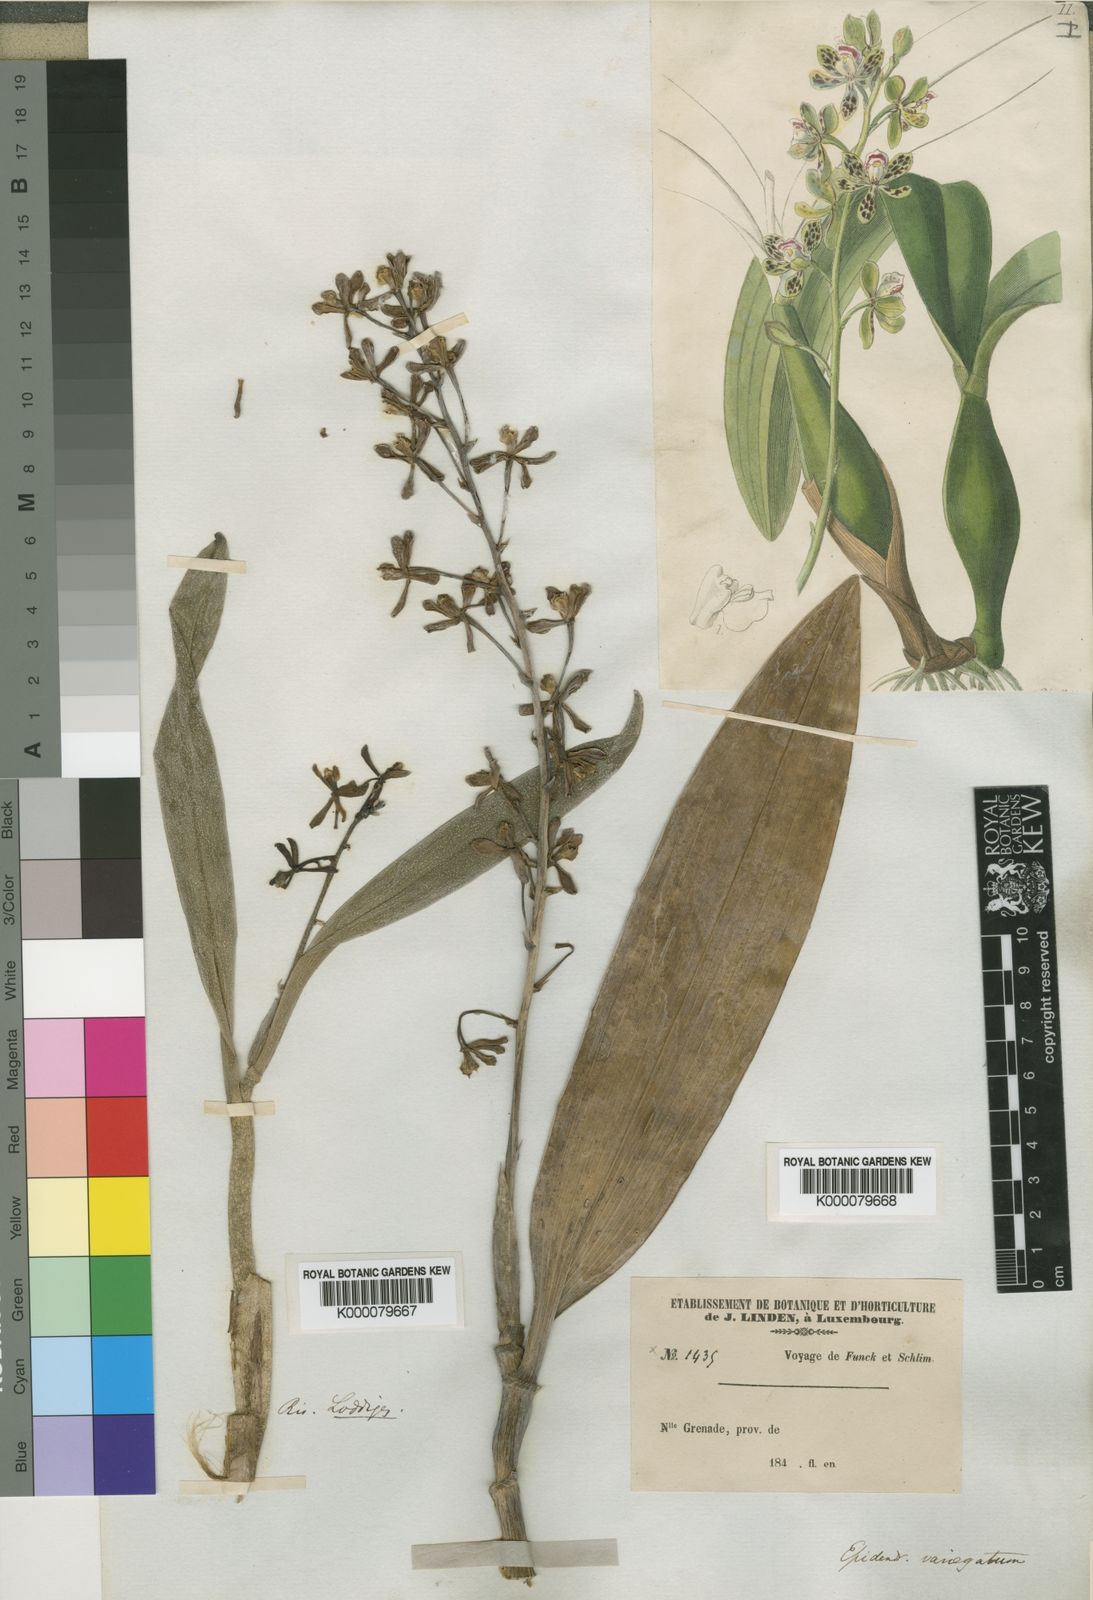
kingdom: Plantae
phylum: Tracheophyta
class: Liliopsida
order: Asparagales
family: Orchidaceae
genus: Prosthechea
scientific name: Prosthechea pachysepala
